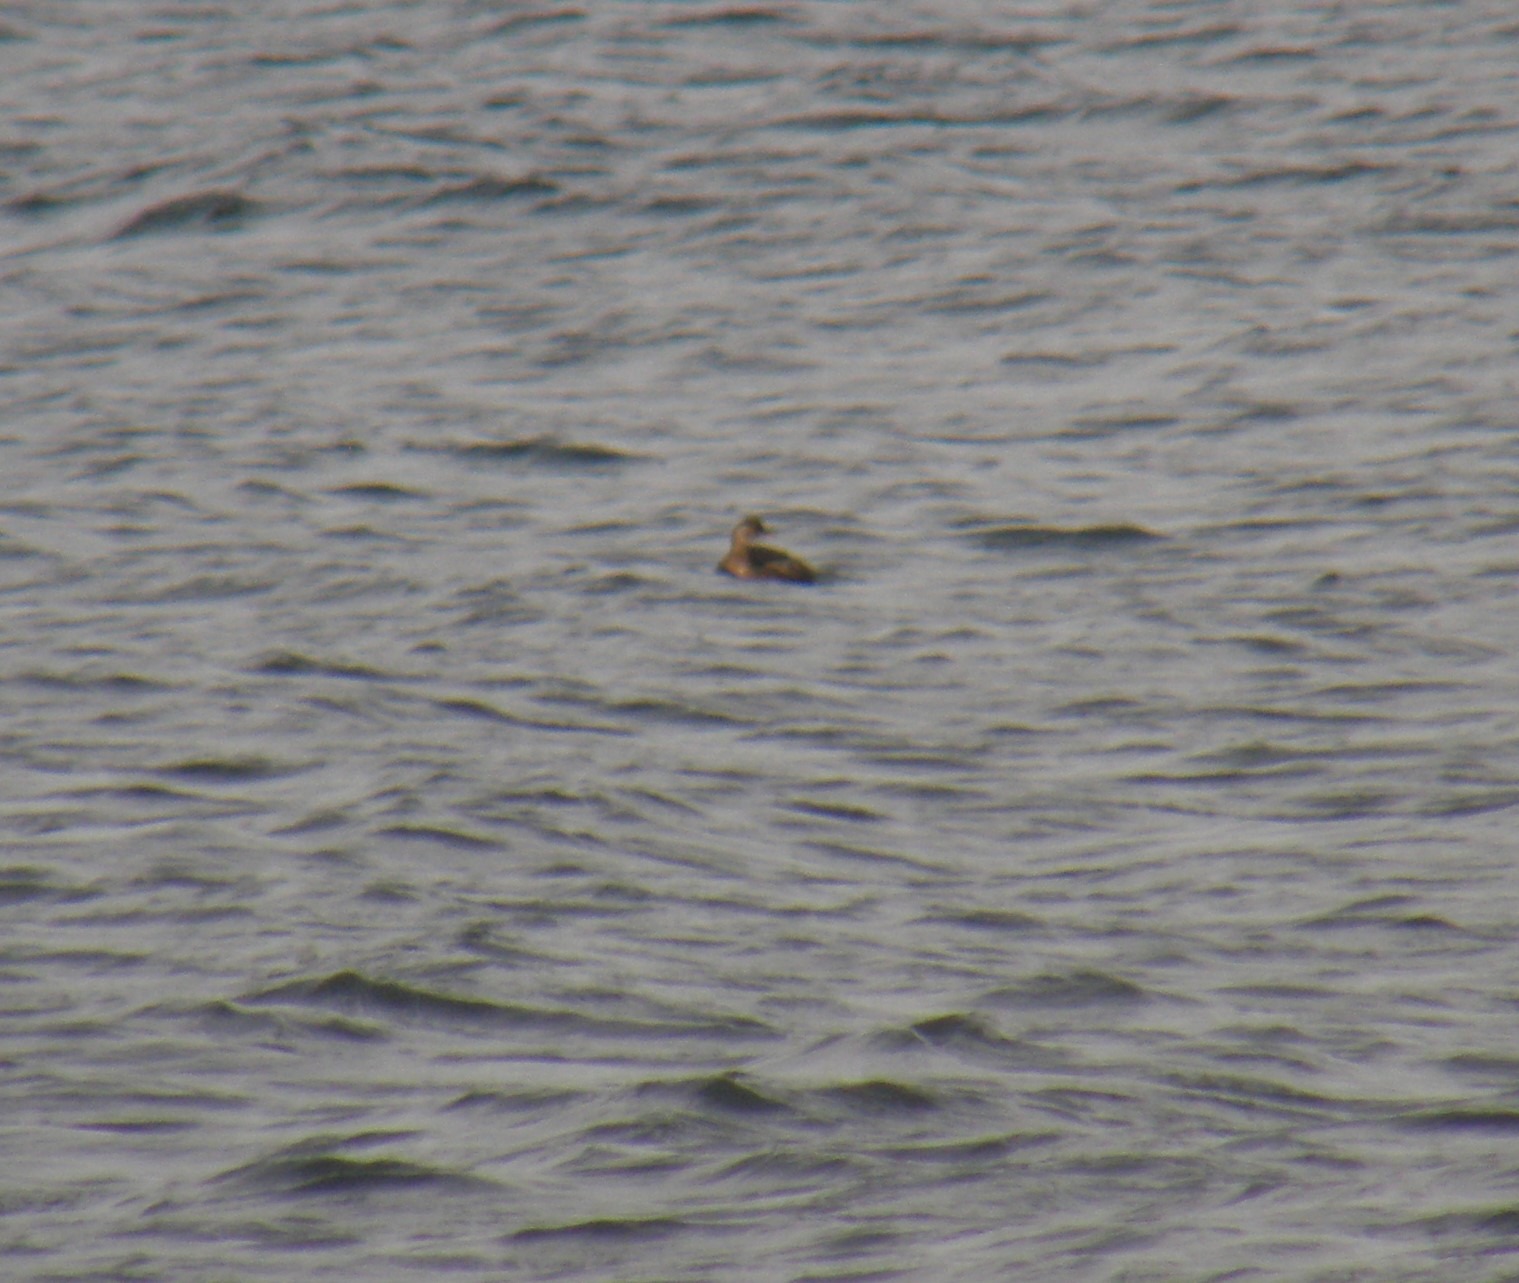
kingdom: Animalia
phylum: Chordata
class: Aves
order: Podicipediformes
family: Podicipedidae
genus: Tachybaptus
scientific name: Tachybaptus ruficollis
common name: Lille lappedykker
